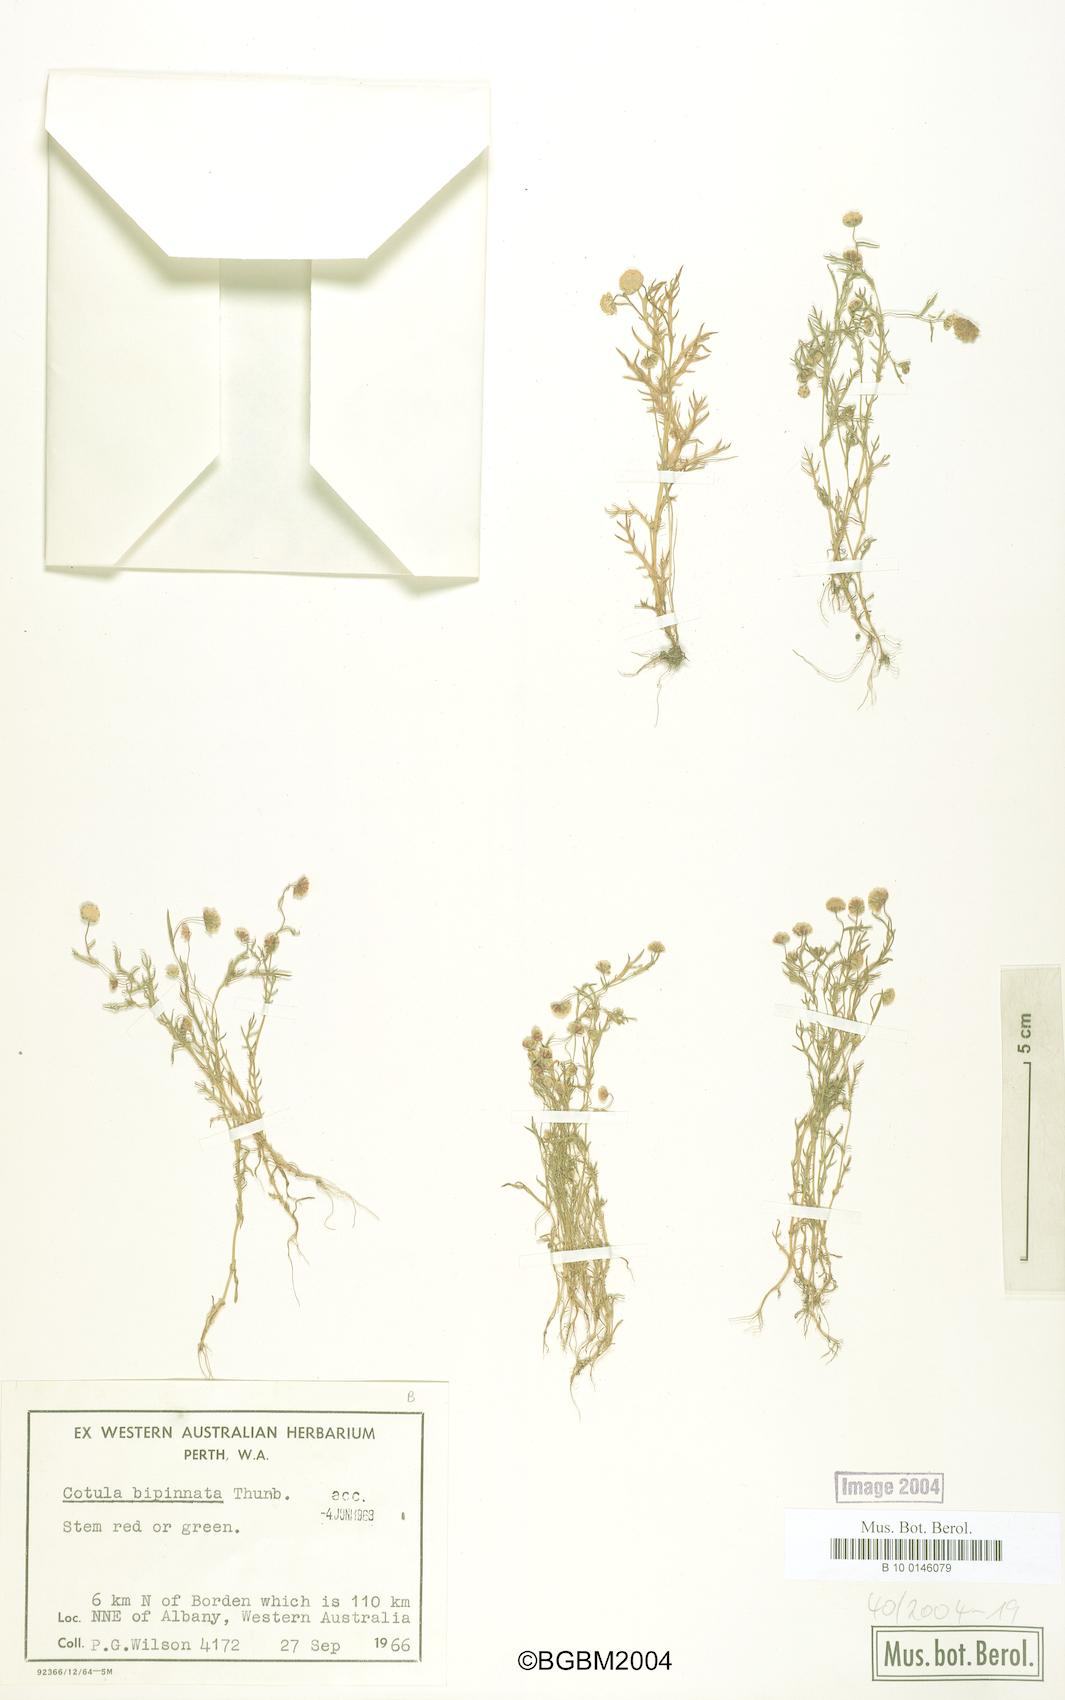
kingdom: Plantae
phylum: Tracheophyta
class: Magnoliopsida
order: Asterales
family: Asteraceae
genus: Cotula
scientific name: Cotula bipinnata
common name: Ferny buttonweed
